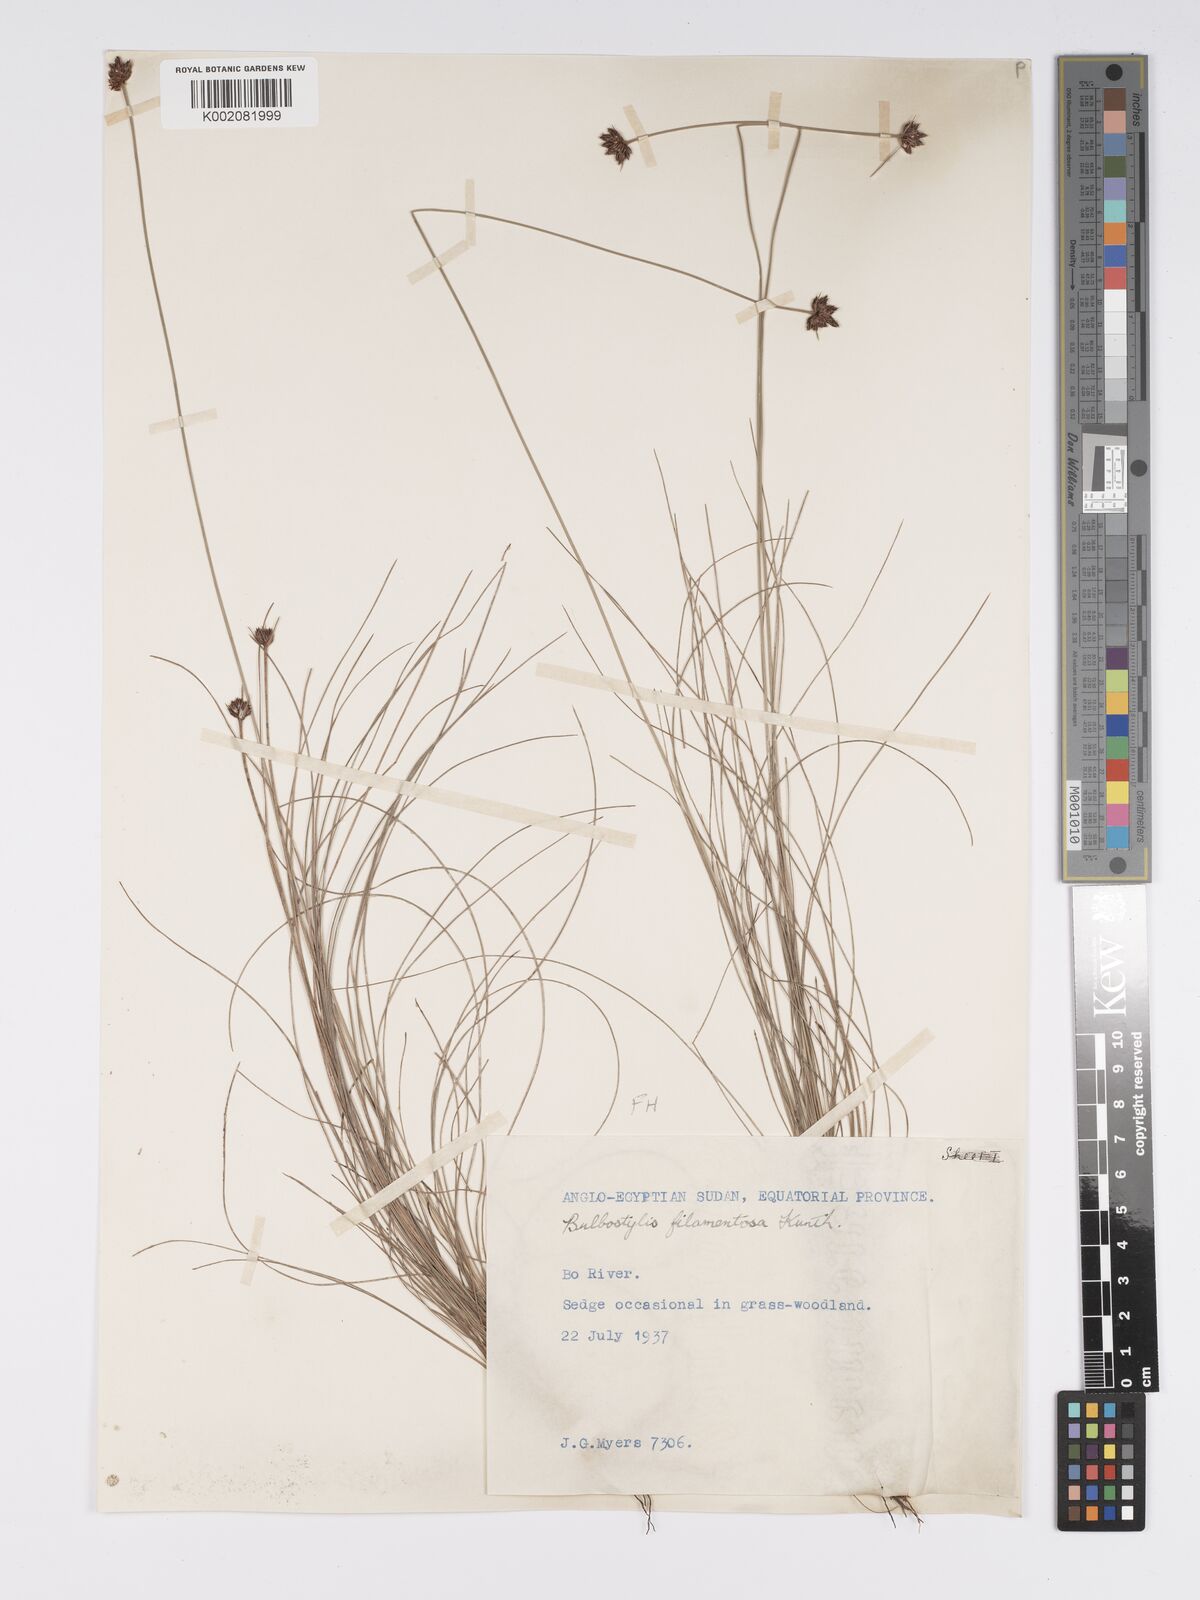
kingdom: Plantae
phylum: Tracheophyta
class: Liliopsida
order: Poales
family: Cyperaceae
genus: Bulbostylis
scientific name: Bulbostylis scabricaulis
